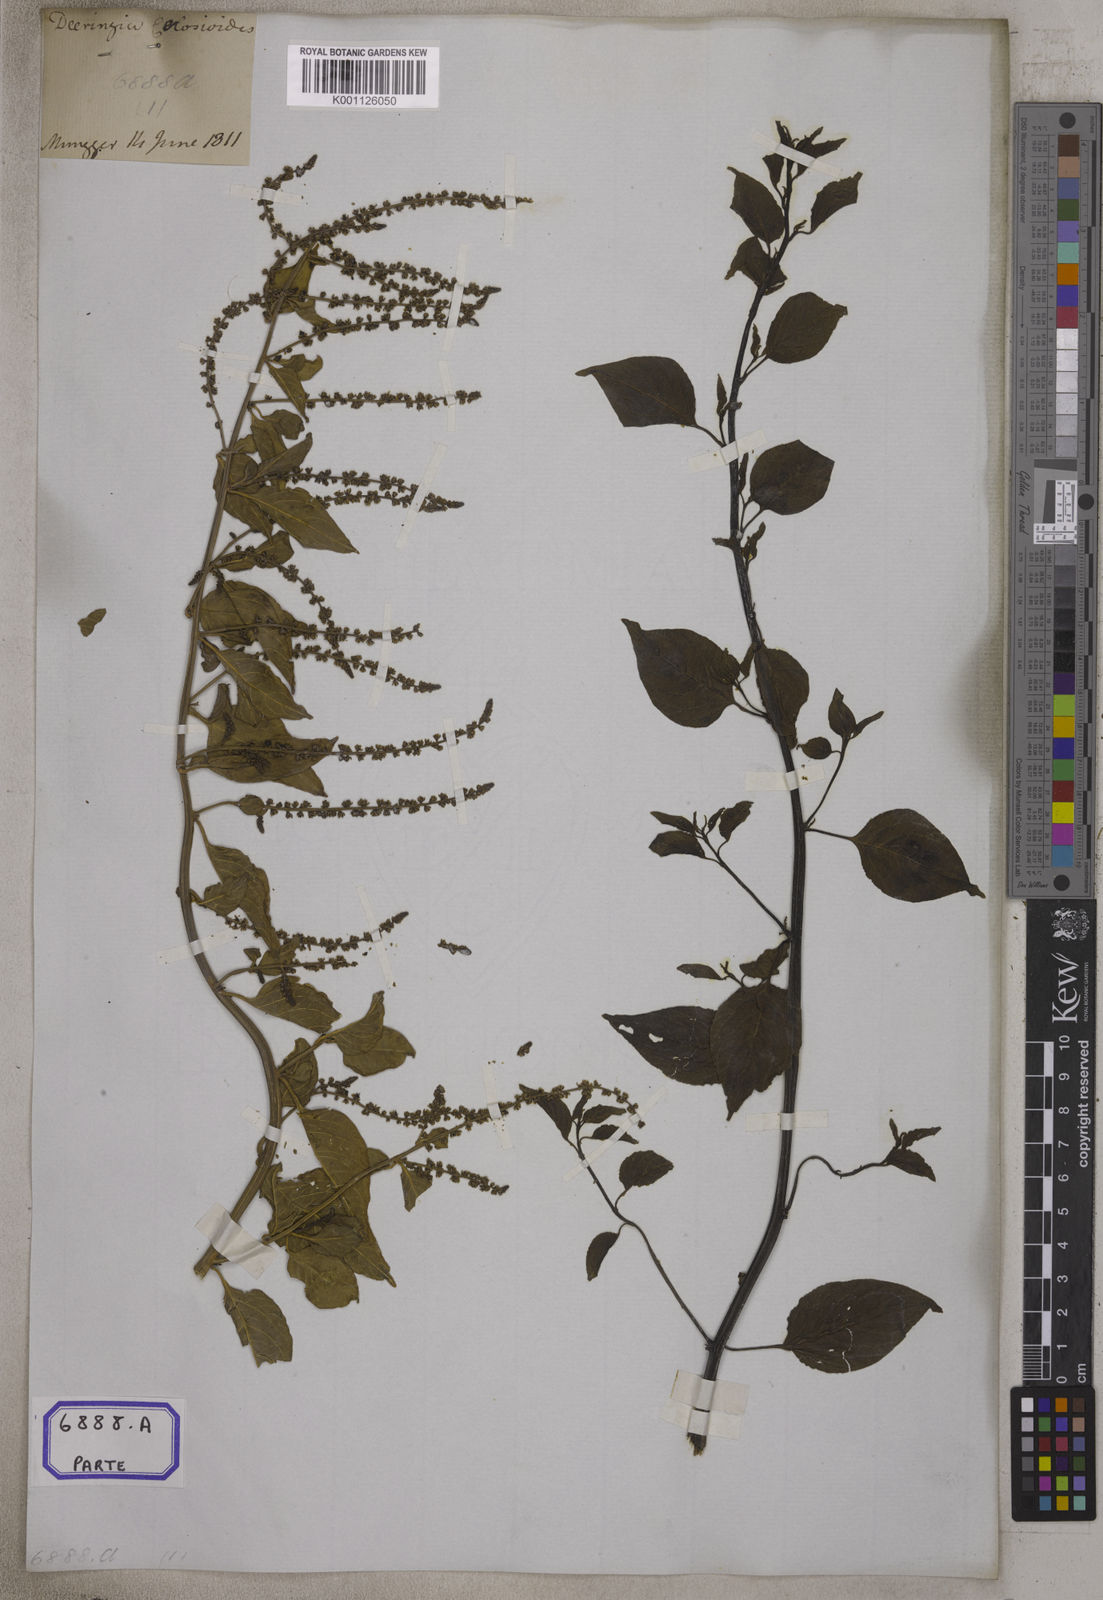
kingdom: Plantae
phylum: Tracheophyta
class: Magnoliopsida
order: Caryophyllales
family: Amaranthaceae
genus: Deeringia
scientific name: Deeringia amaranthoides
